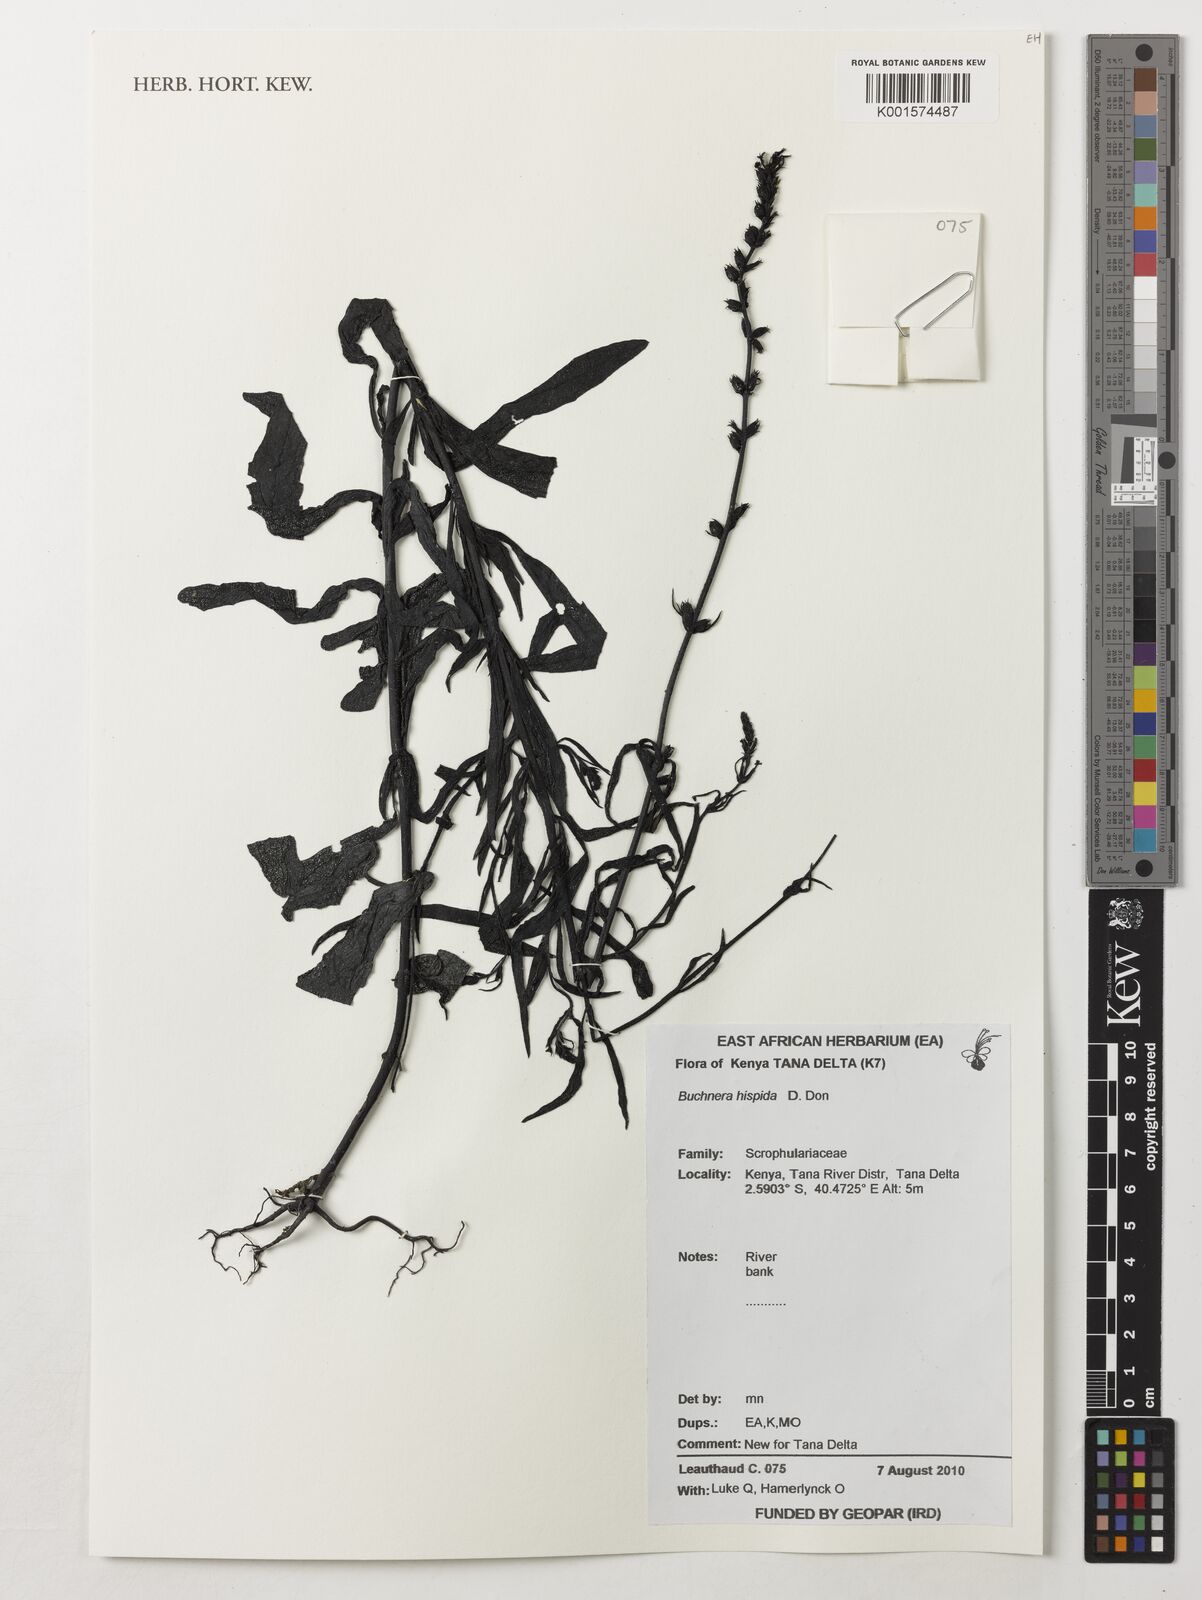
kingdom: Plantae
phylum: Tracheophyta
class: Magnoliopsida
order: Lamiales
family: Orobanchaceae
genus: Buchnera
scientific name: Buchnera hispida
